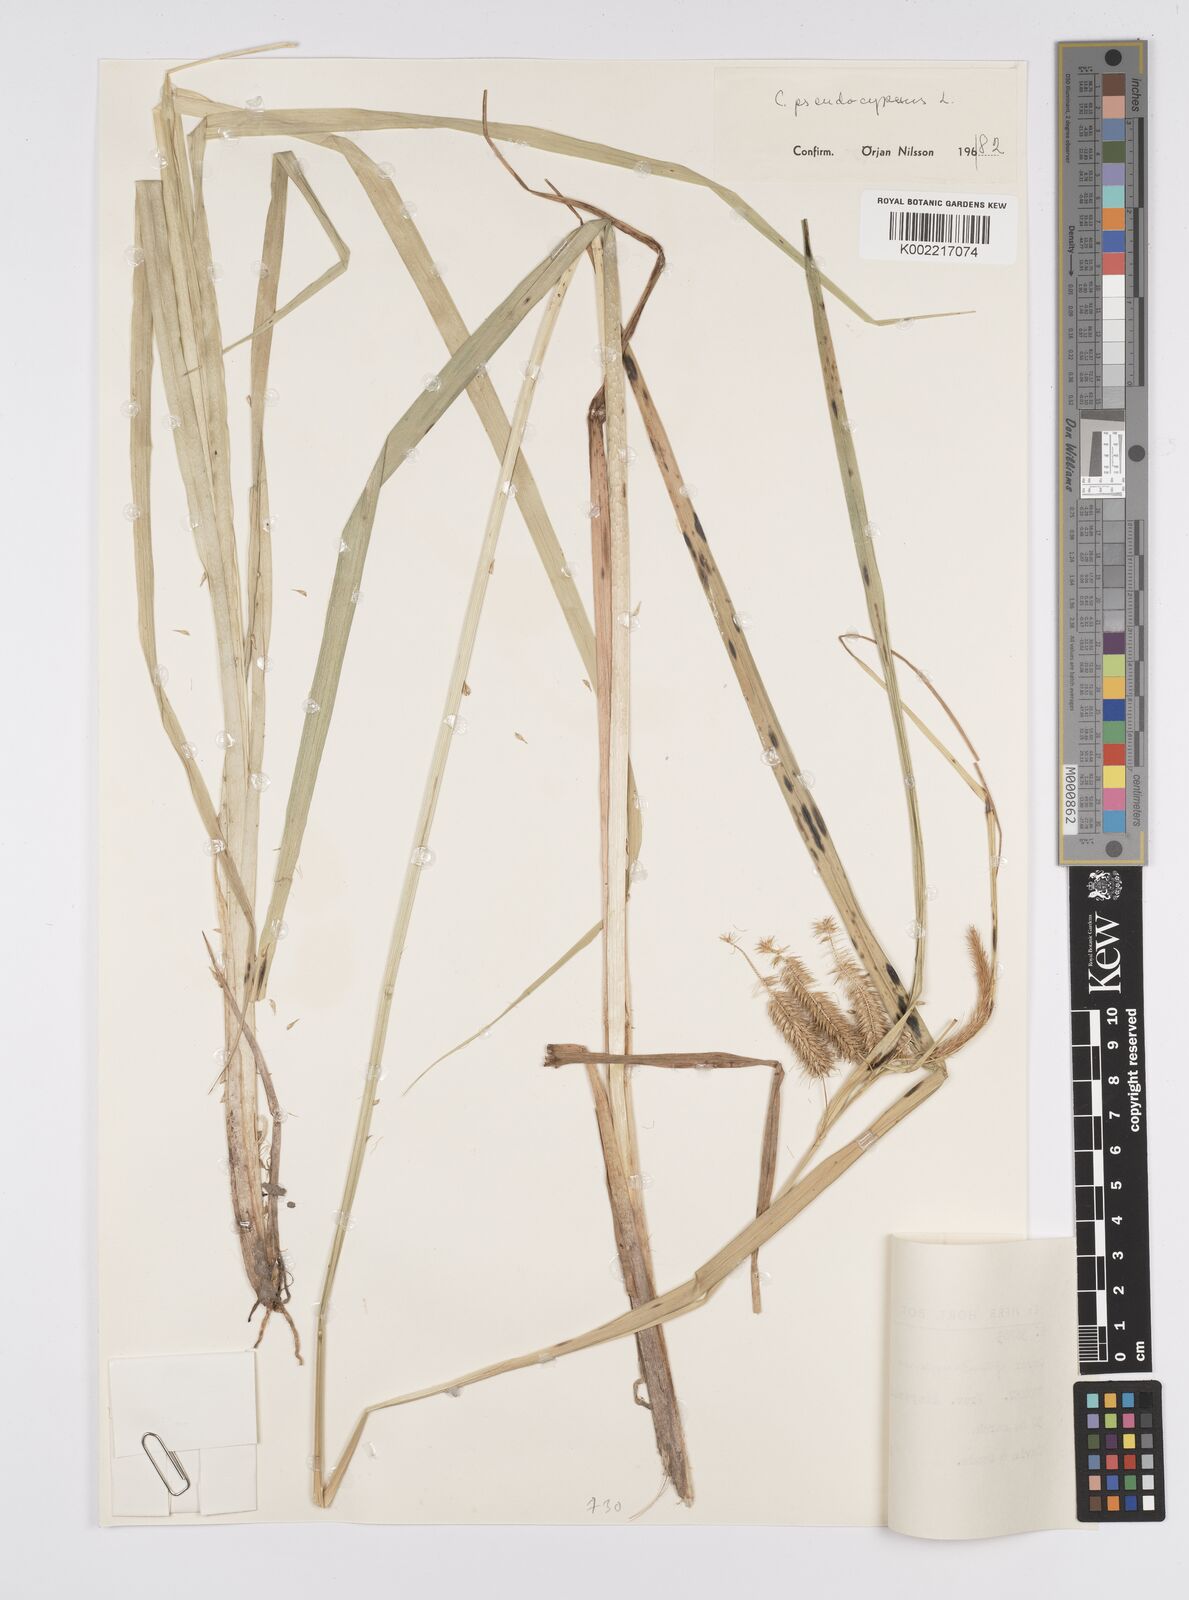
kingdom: Plantae
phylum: Tracheophyta
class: Liliopsida
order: Poales
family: Cyperaceae
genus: Carex
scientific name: Carex pseudocyperus
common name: Cyperus sedge
